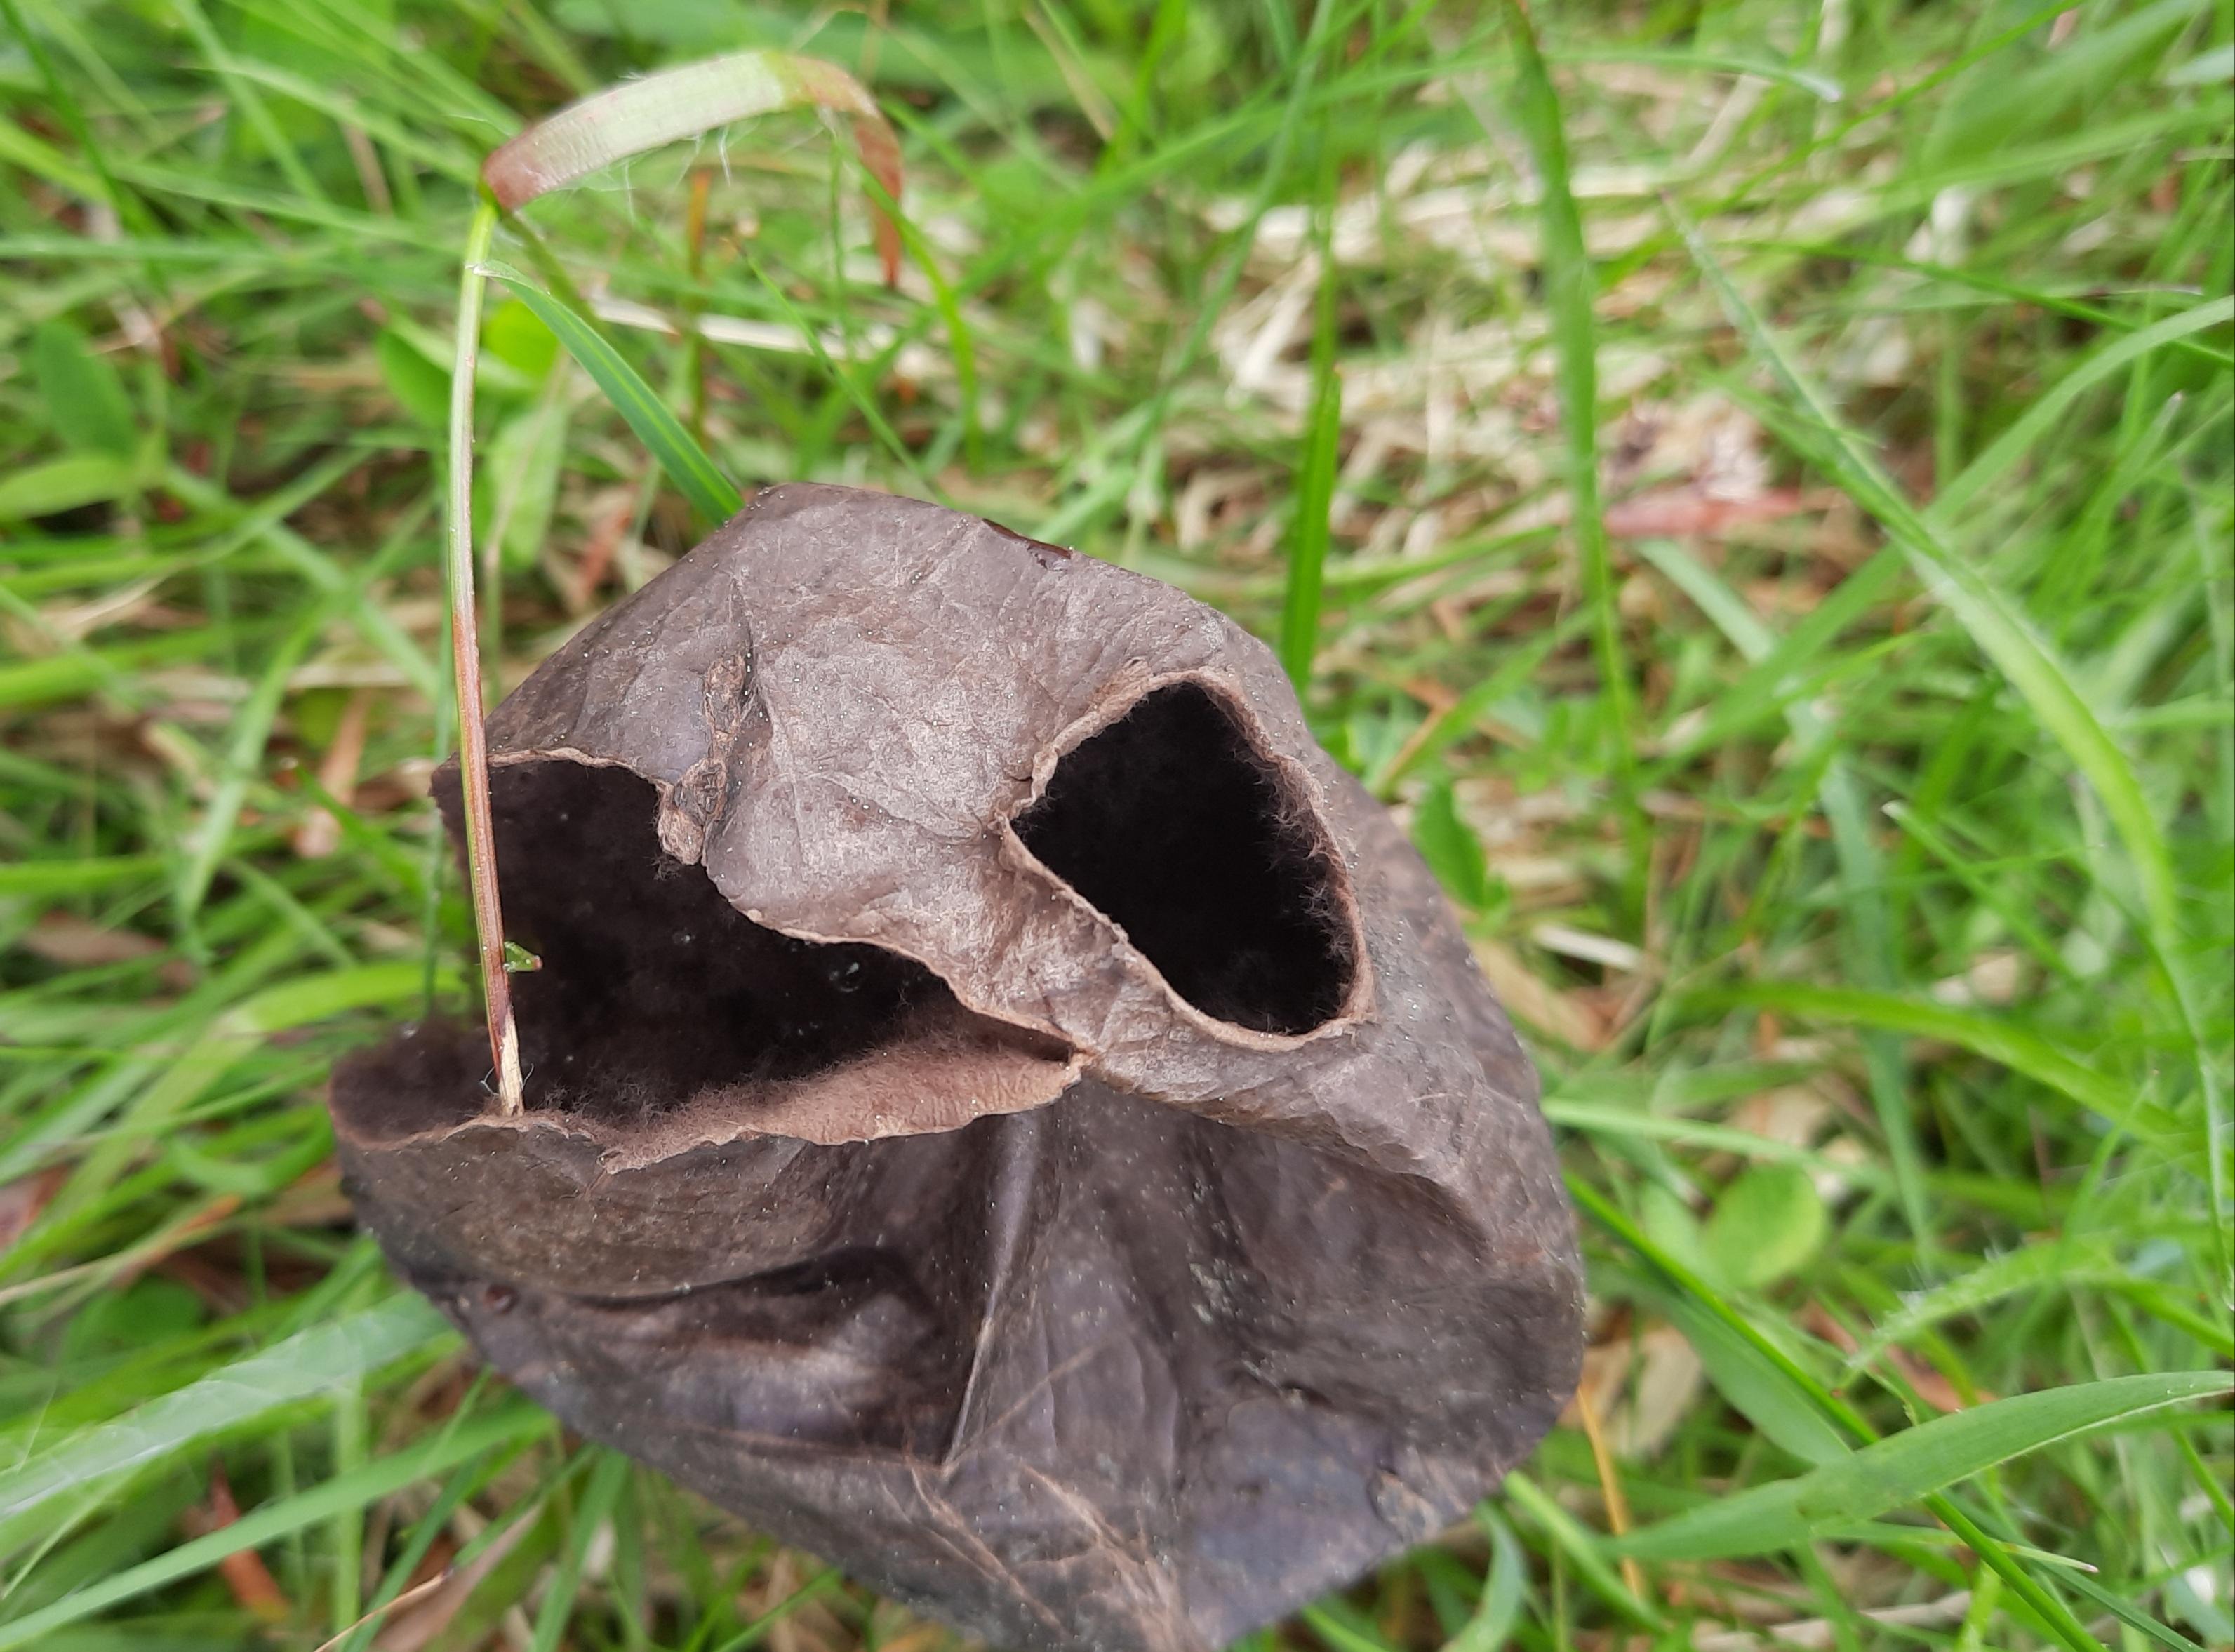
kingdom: Fungi
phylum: Basidiomycota
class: Agaricomycetes
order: Agaricales
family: Lycoperdaceae
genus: Bovista
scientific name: Bovista nigrescens
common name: sortagtig bovist
